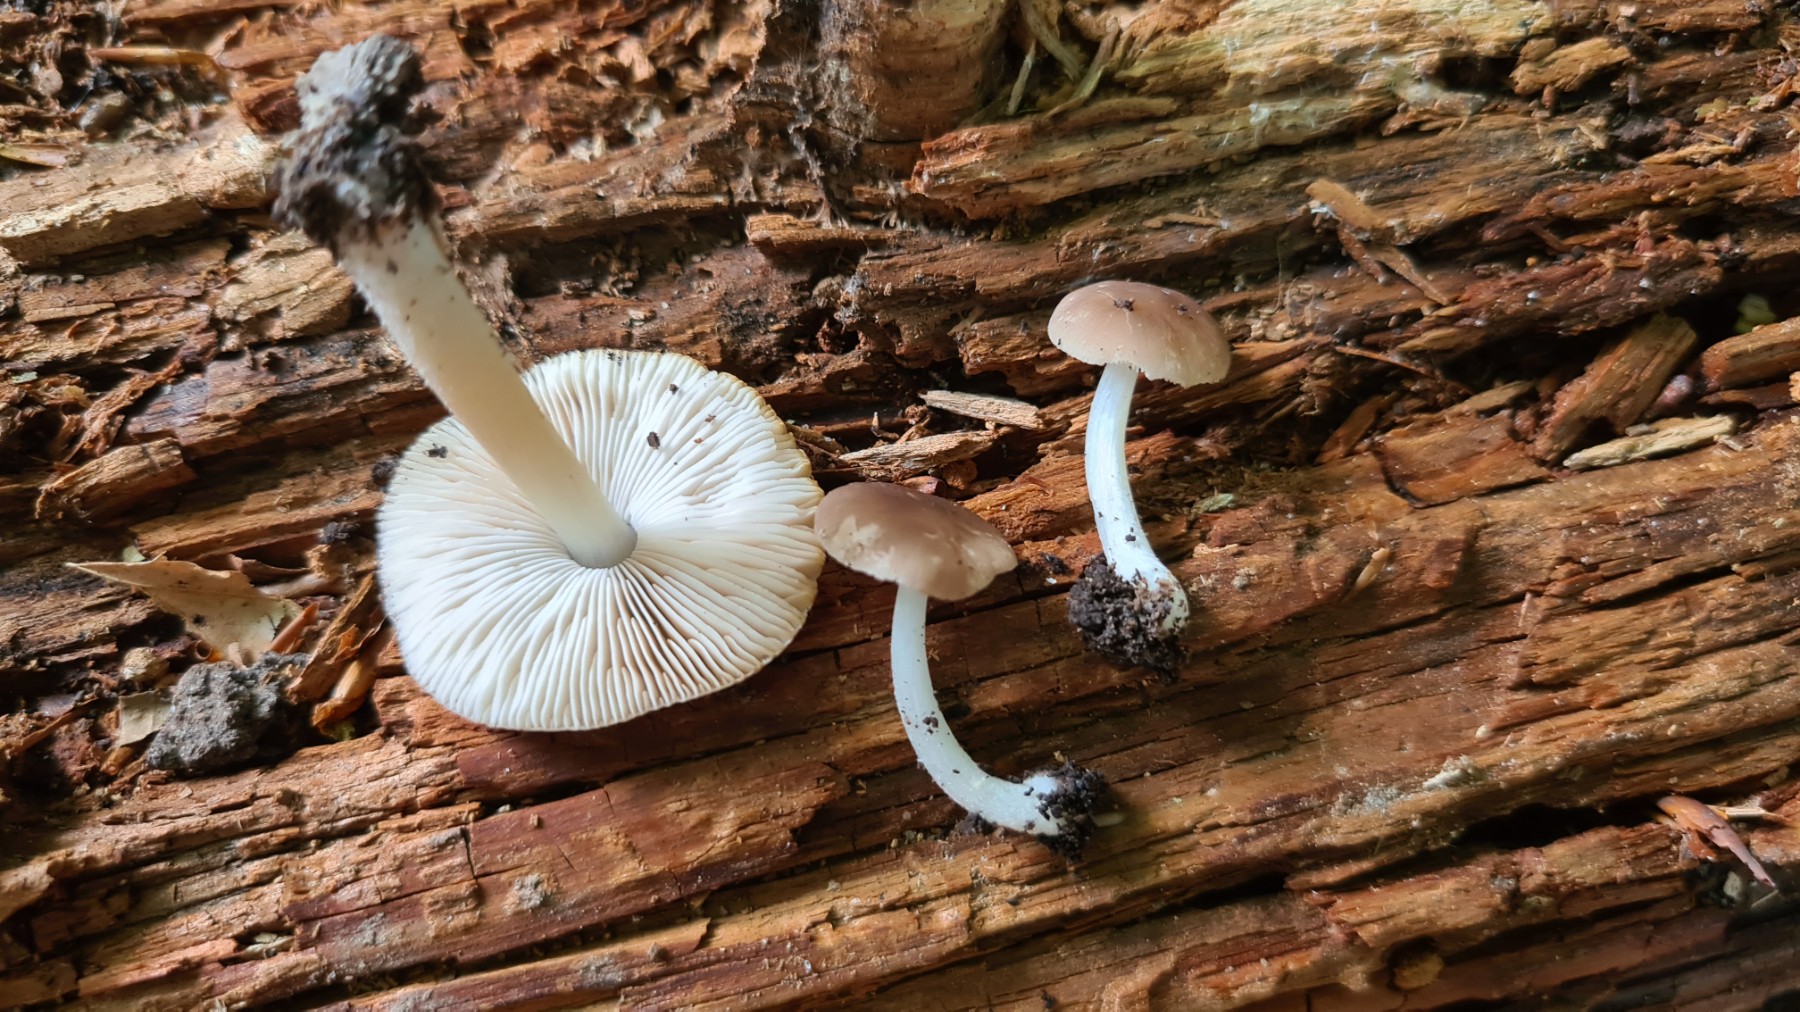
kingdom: Fungi
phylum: Basidiomycota
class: Agaricomycetes
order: Agaricales
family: Pluteaceae
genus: Pluteus
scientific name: Pluteus phlebophorus
